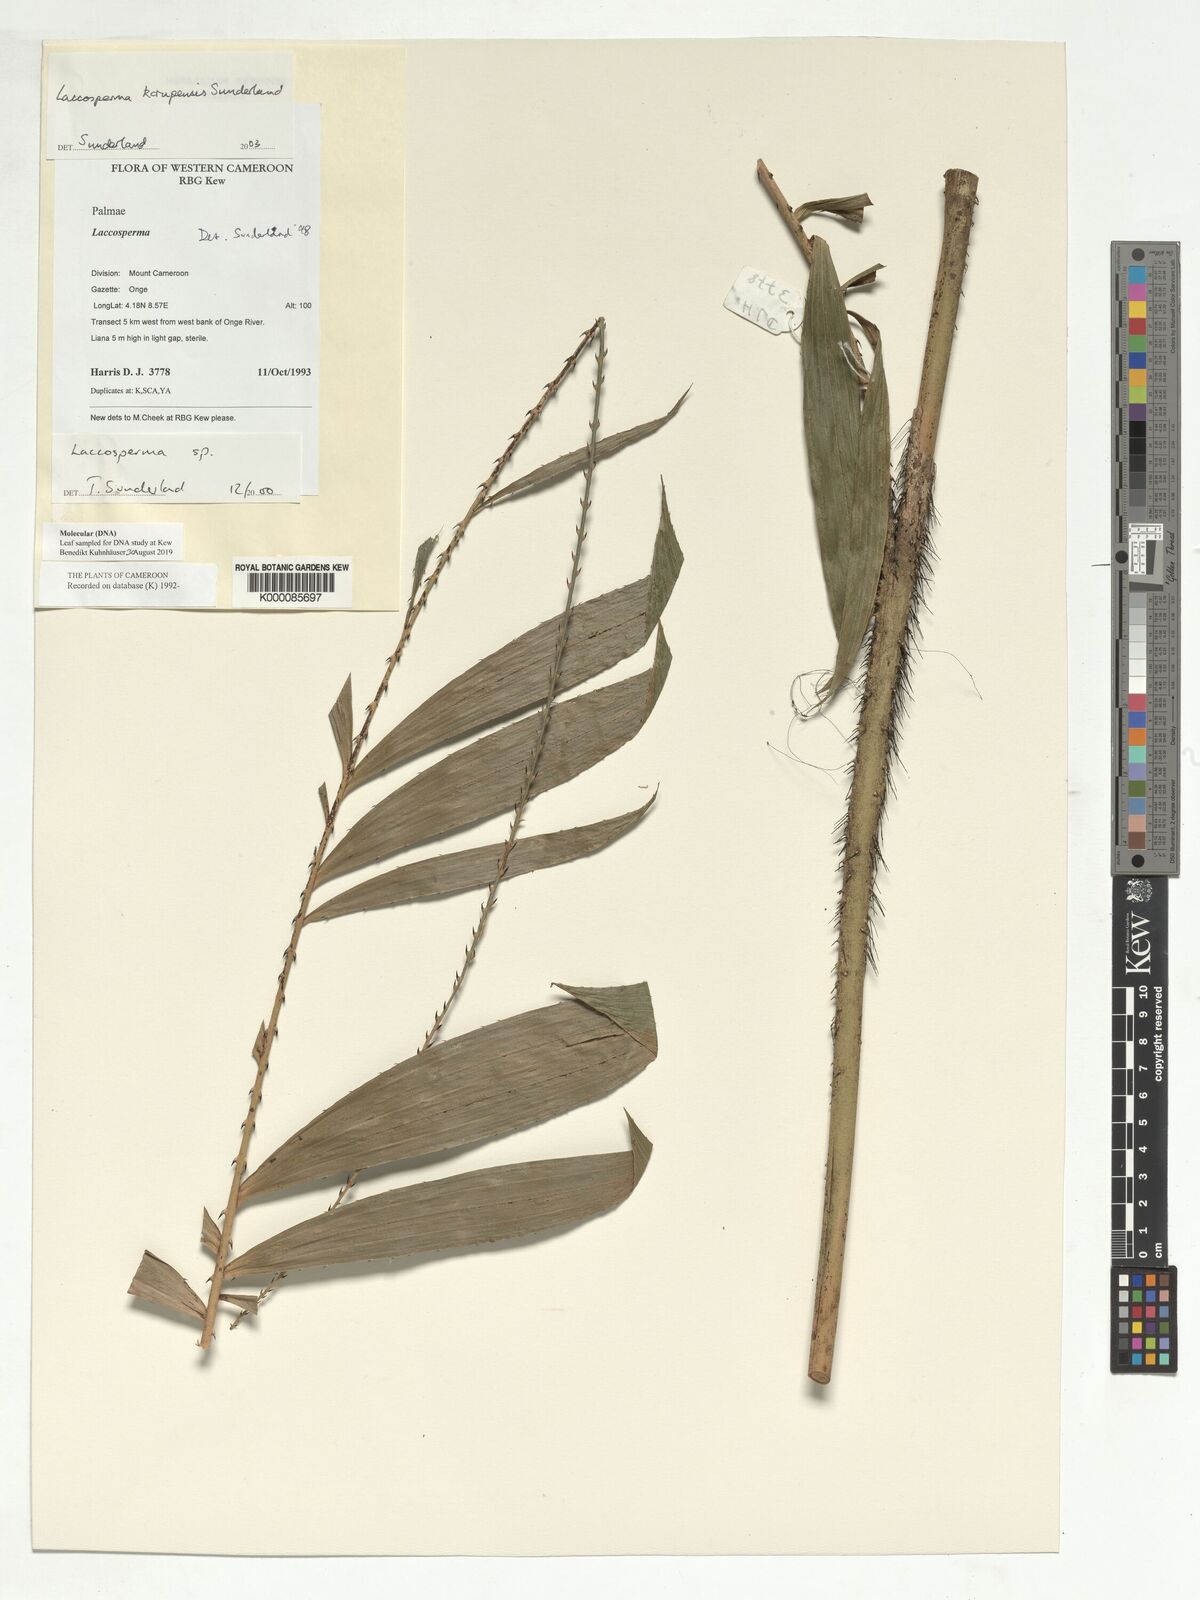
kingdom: Plantae
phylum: Tracheophyta
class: Liliopsida
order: Arecales
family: Arecaceae
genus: Laccosperma
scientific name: Laccosperma korupense
